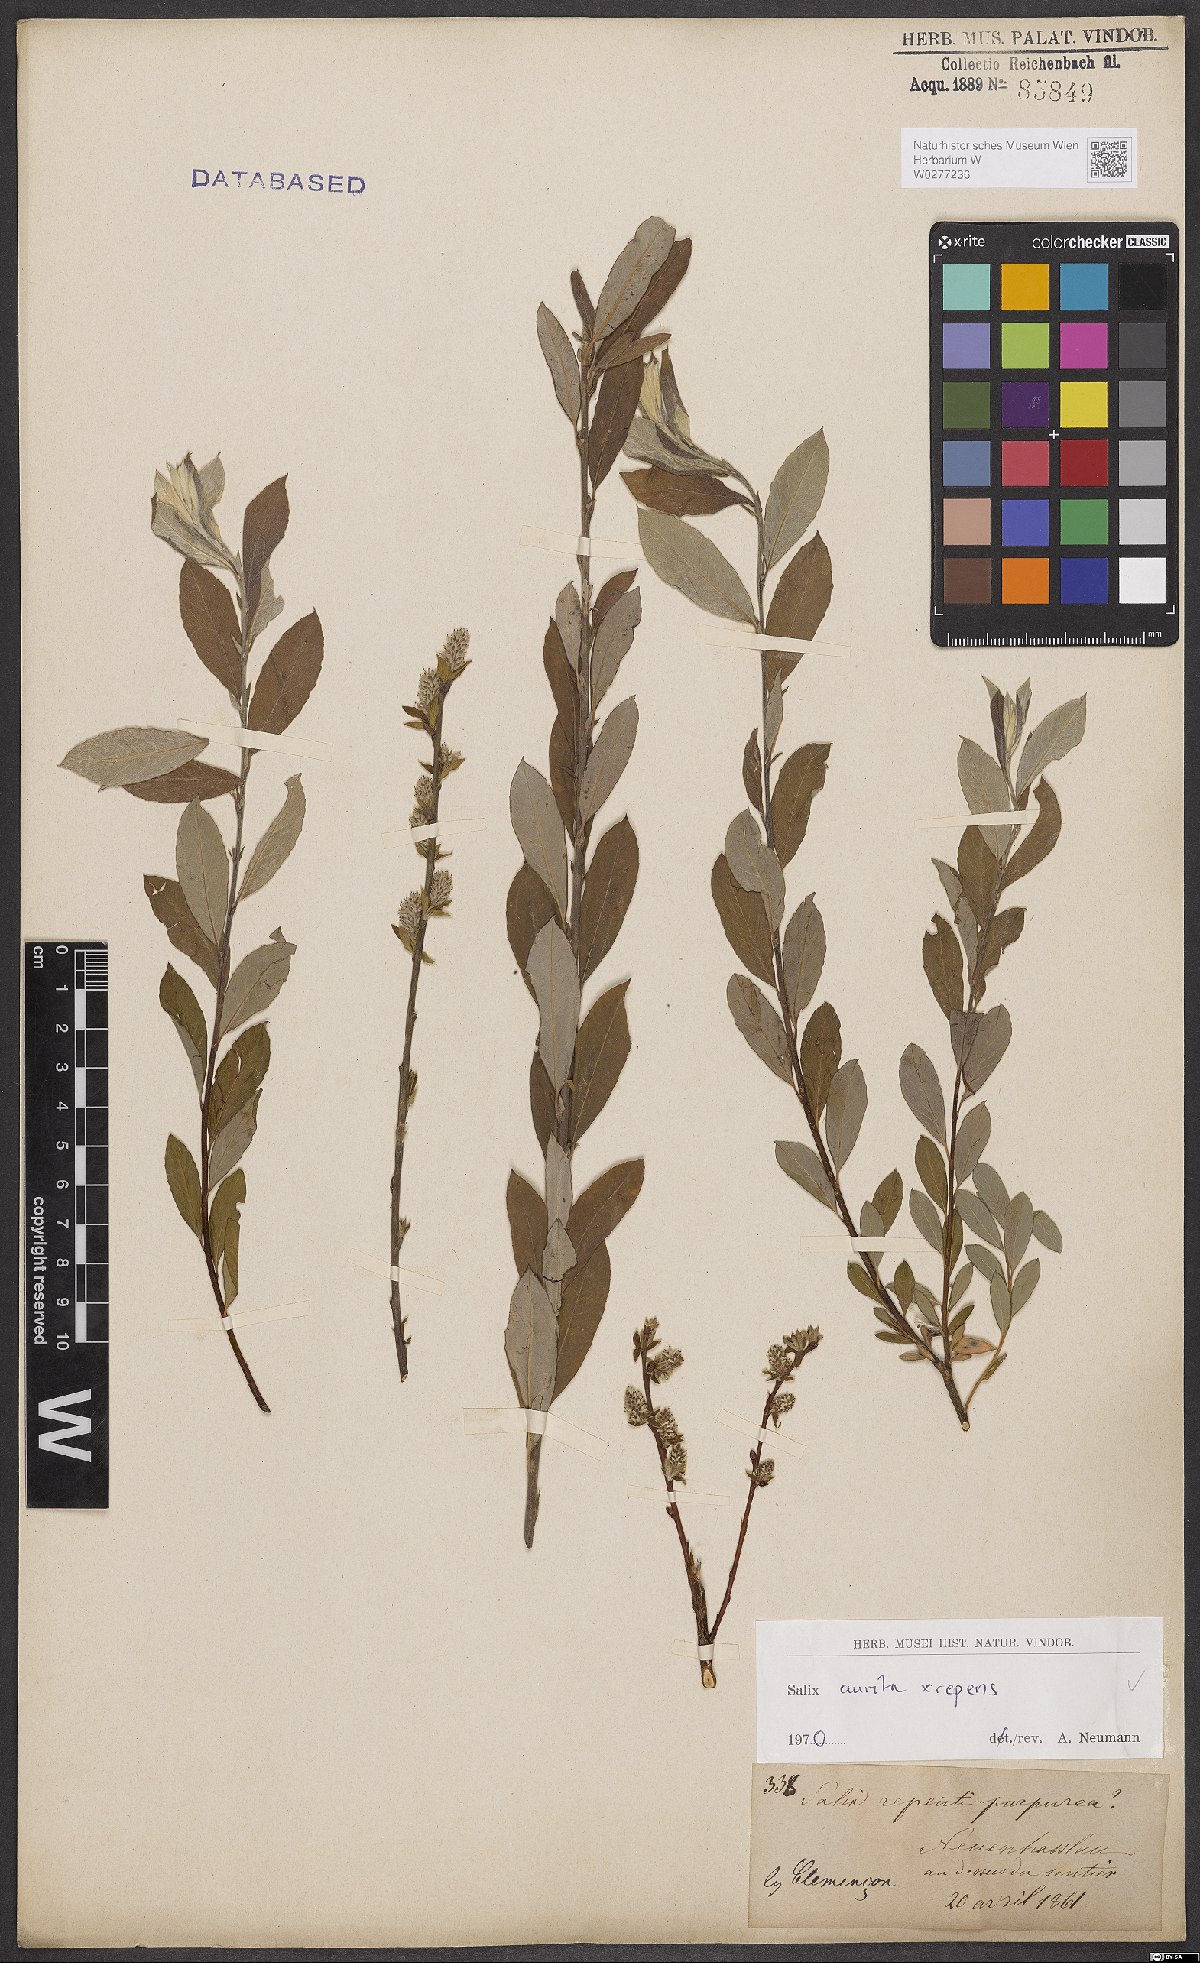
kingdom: Plantae
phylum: Tracheophyta
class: Magnoliopsida
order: Malpighiales
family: Salicaceae
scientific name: Salicaceae
